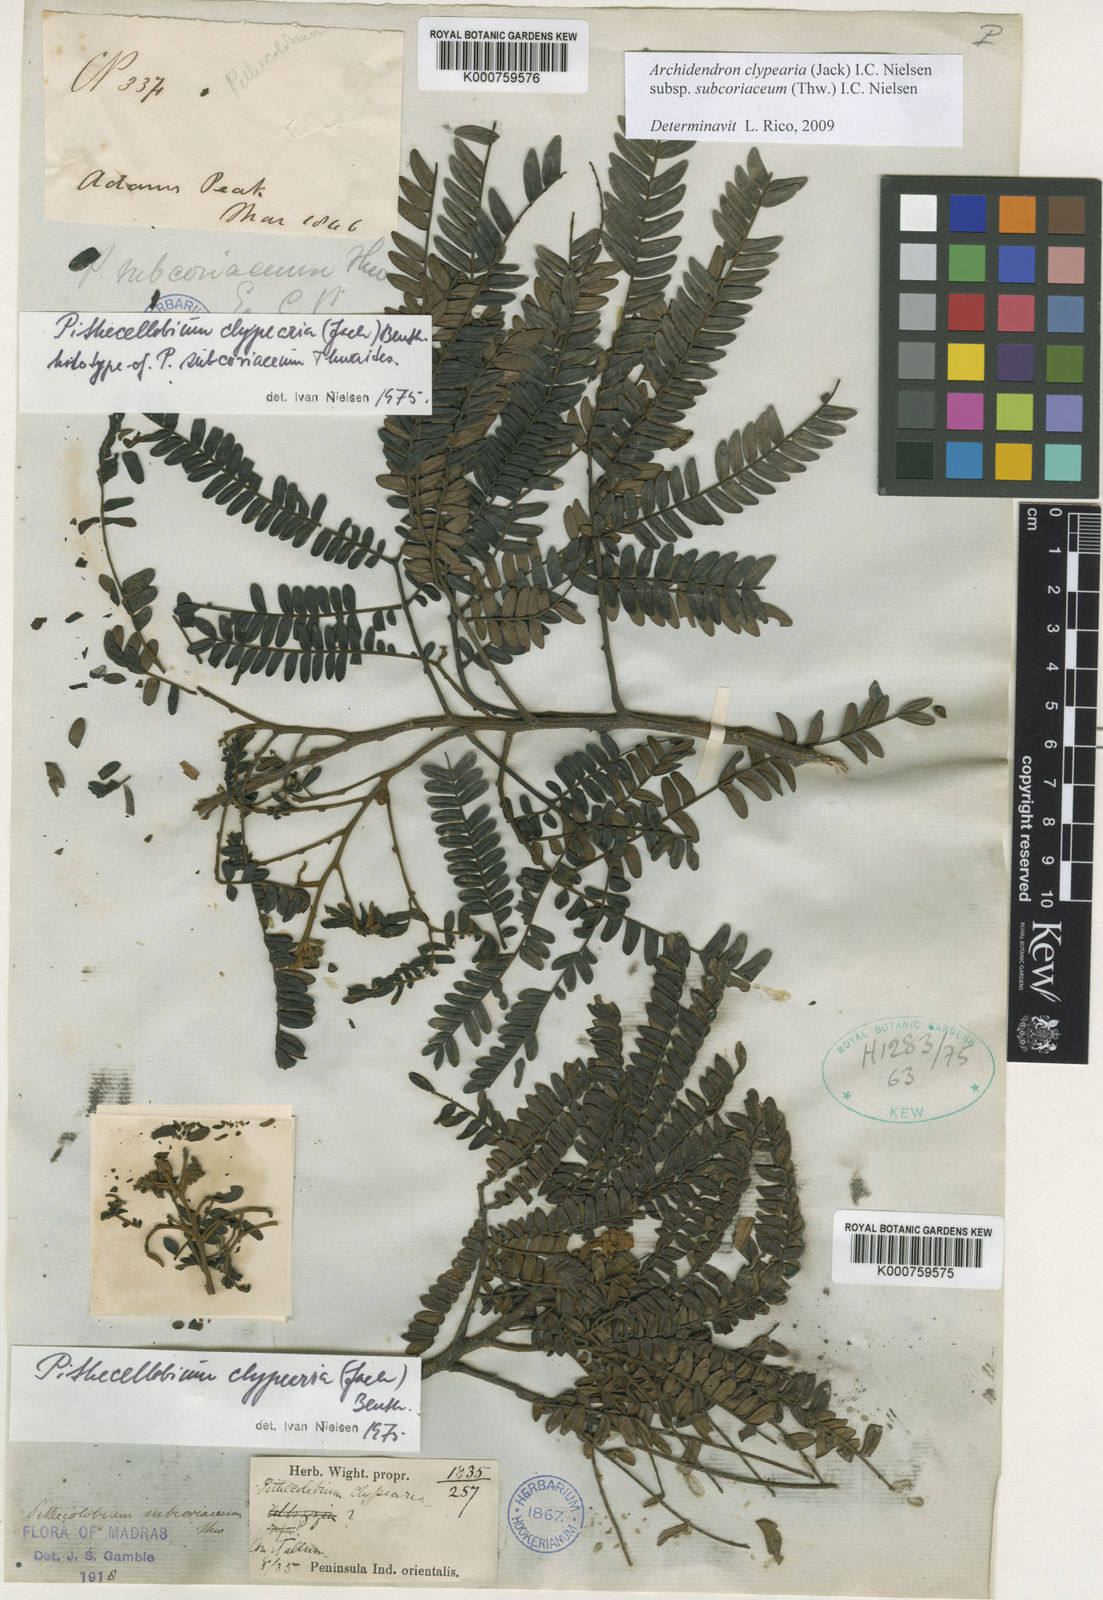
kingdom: Plantae
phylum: Tracheophyta
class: Magnoliopsida
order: Fabales
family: Fabaceae
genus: Archidendron
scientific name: Archidendron clypearia
